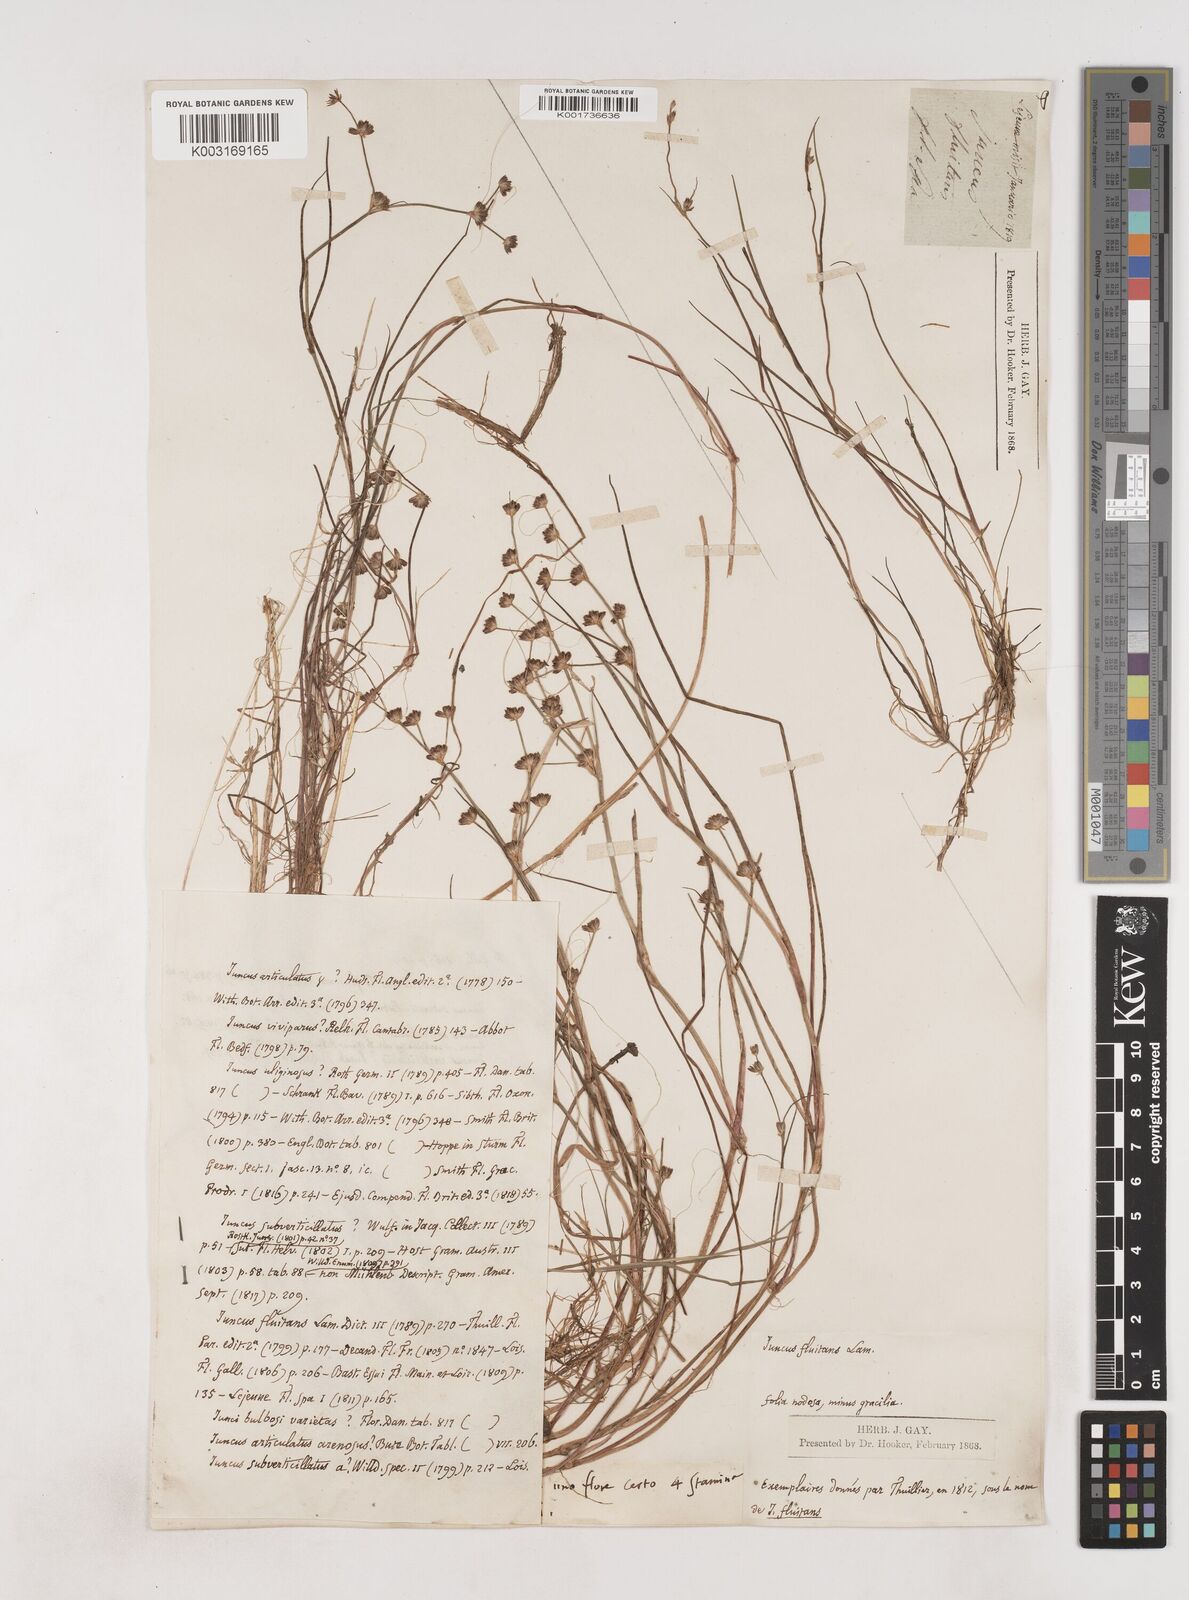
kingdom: Plantae
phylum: Tracheophyta
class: Liliopsida
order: Poales
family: Juncaceae
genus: Juncus
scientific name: Juncus bulbosus
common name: Bulbous rush
